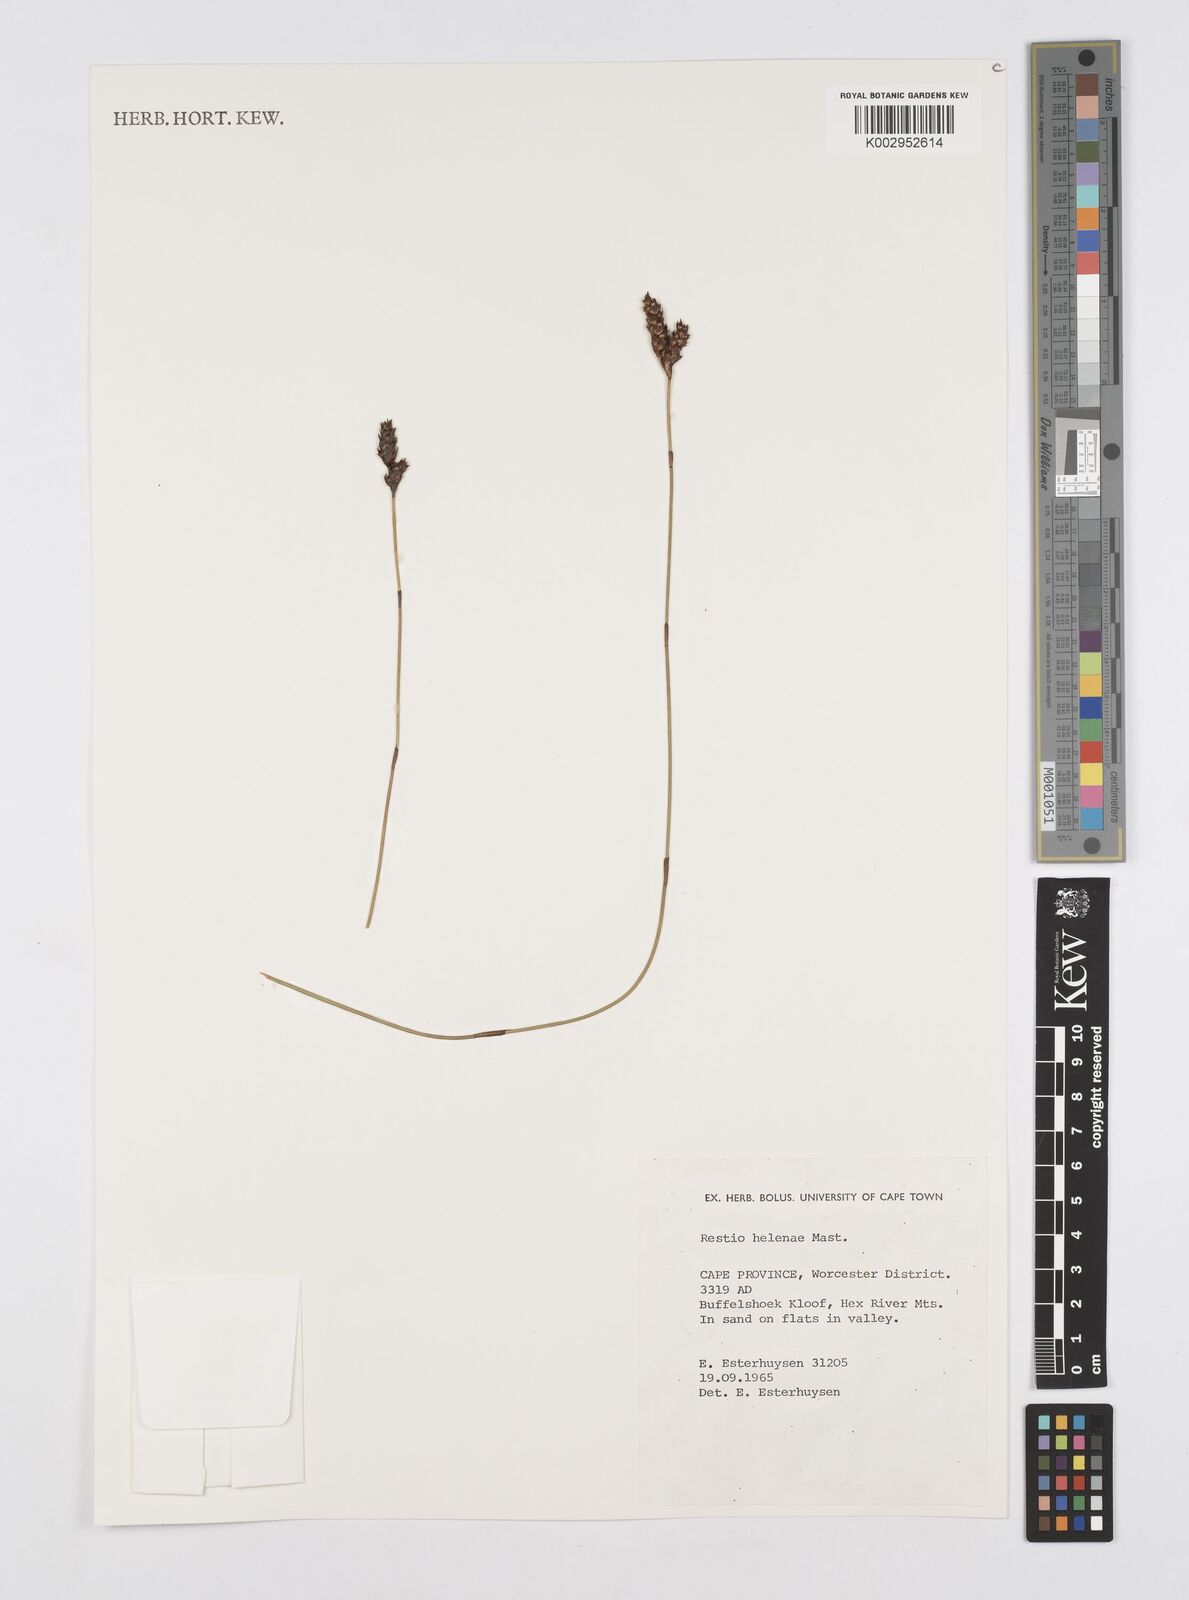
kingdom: Plantae
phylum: Tracheophyta
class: Liliopsida
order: Poales
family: Restionaceae
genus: Restio
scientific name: Restio helenae
